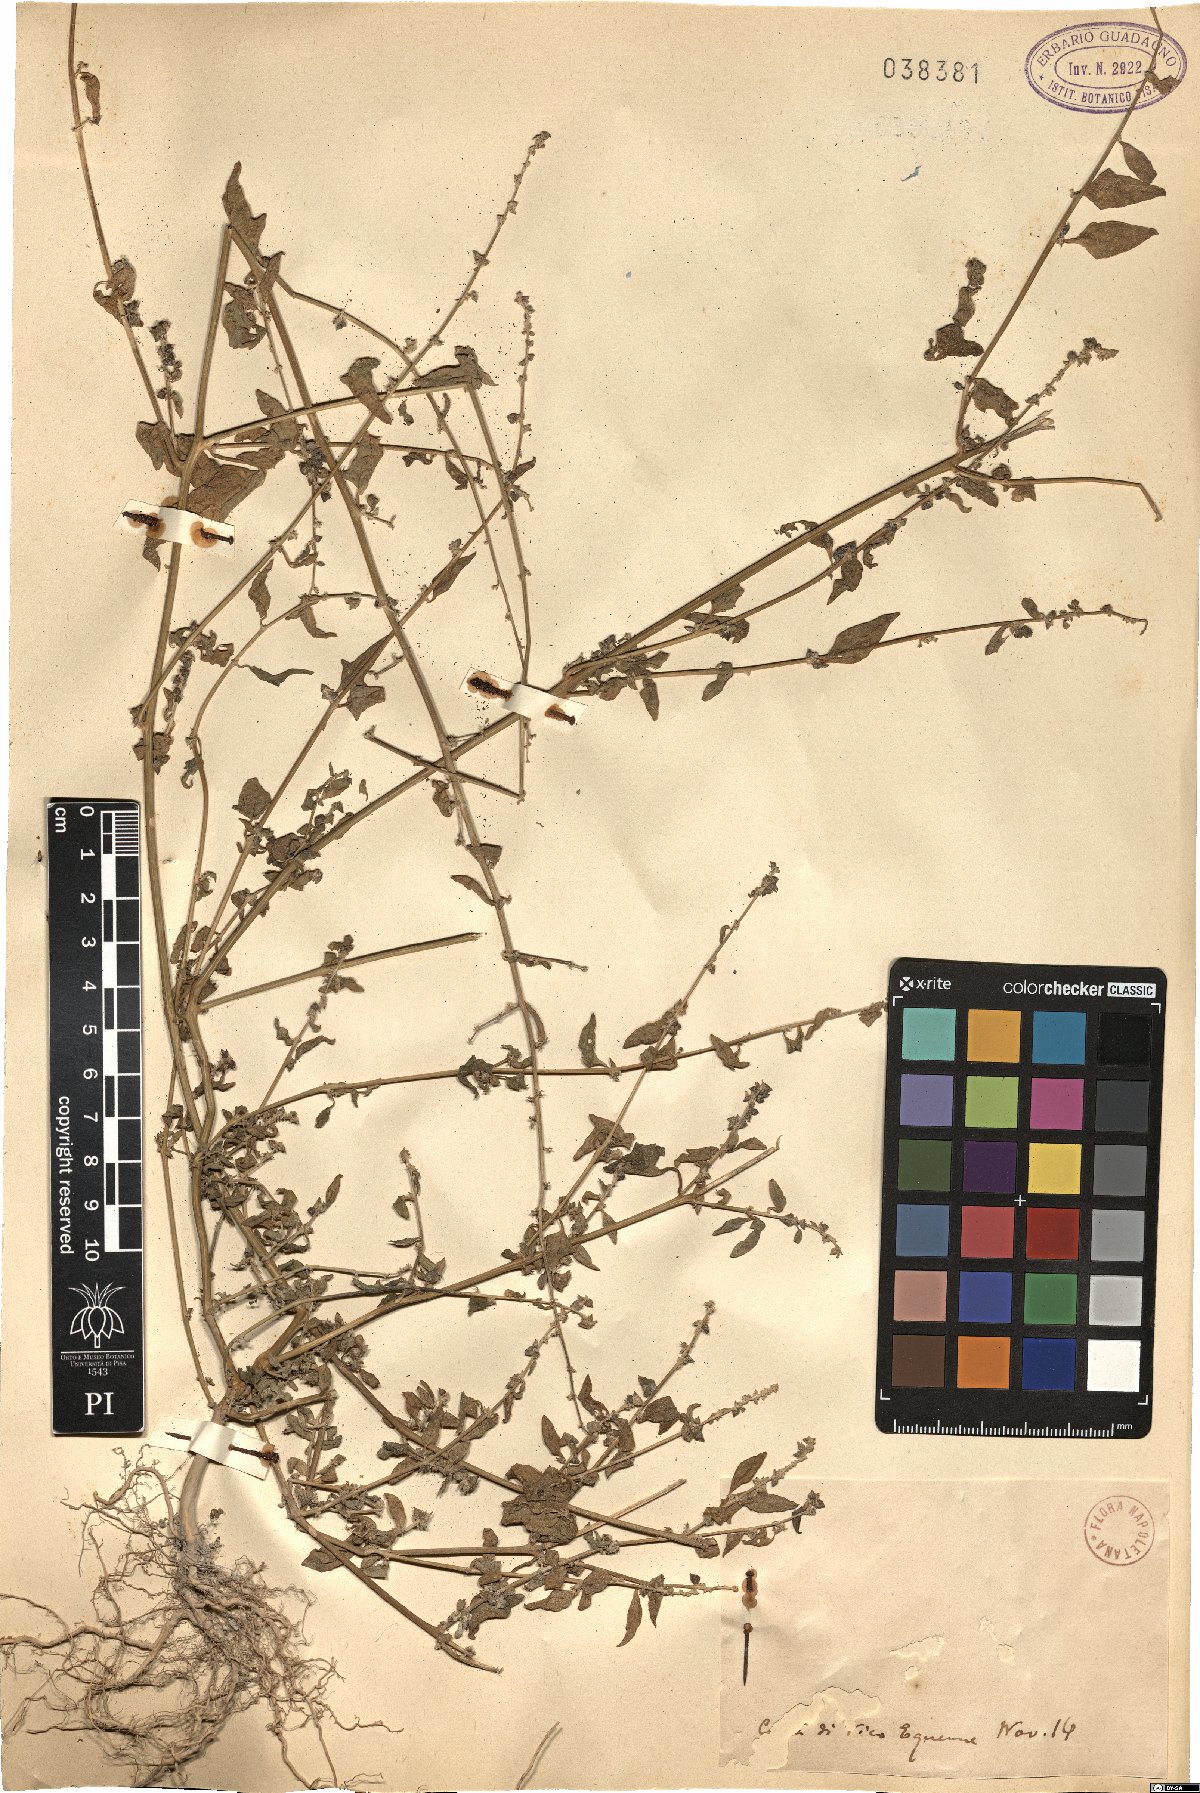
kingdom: Plantae
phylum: Tracheophyta
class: Magnoliopsida
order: Caryophyllales
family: Amaranthaceae
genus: Atriplex
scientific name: Atriplex
